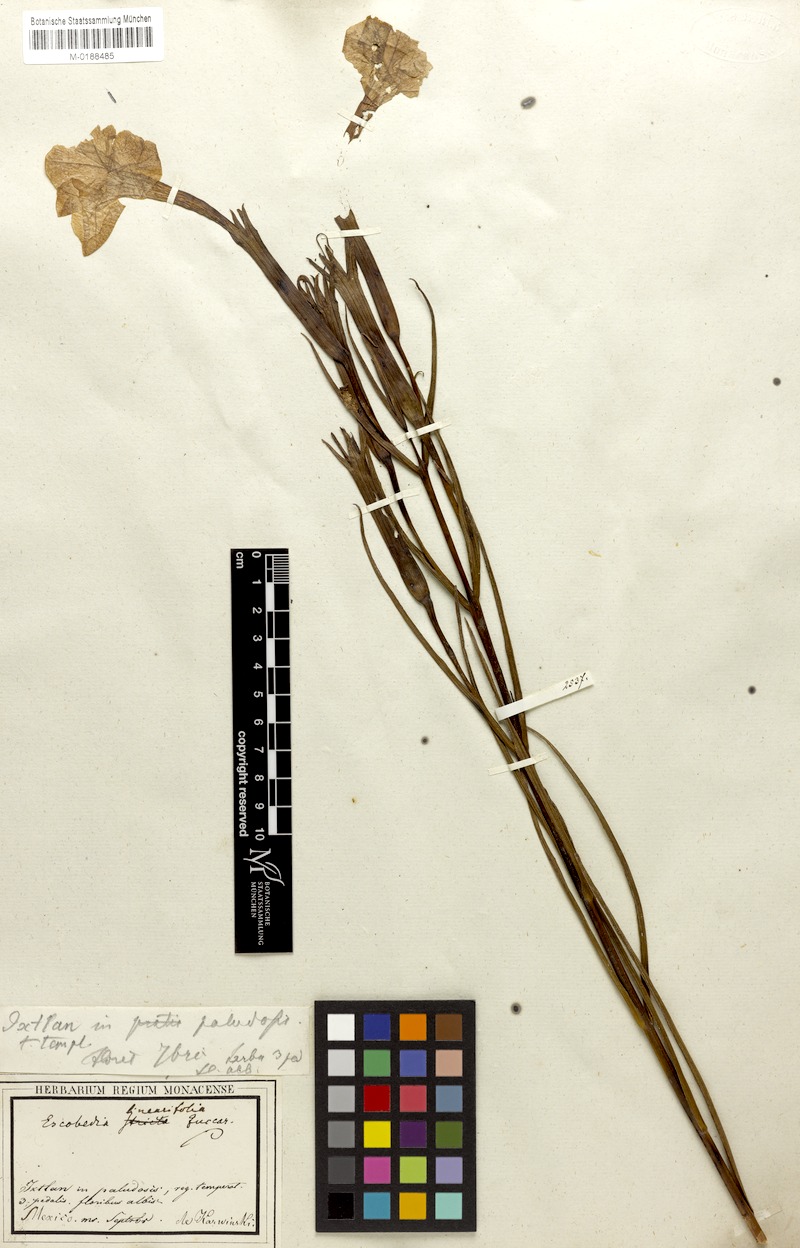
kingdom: Plantae
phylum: Tracheophyta
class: Magnoliopsida
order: Lamiales
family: Orobanchaceae
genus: Escobedia
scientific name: Escobedia laevis
